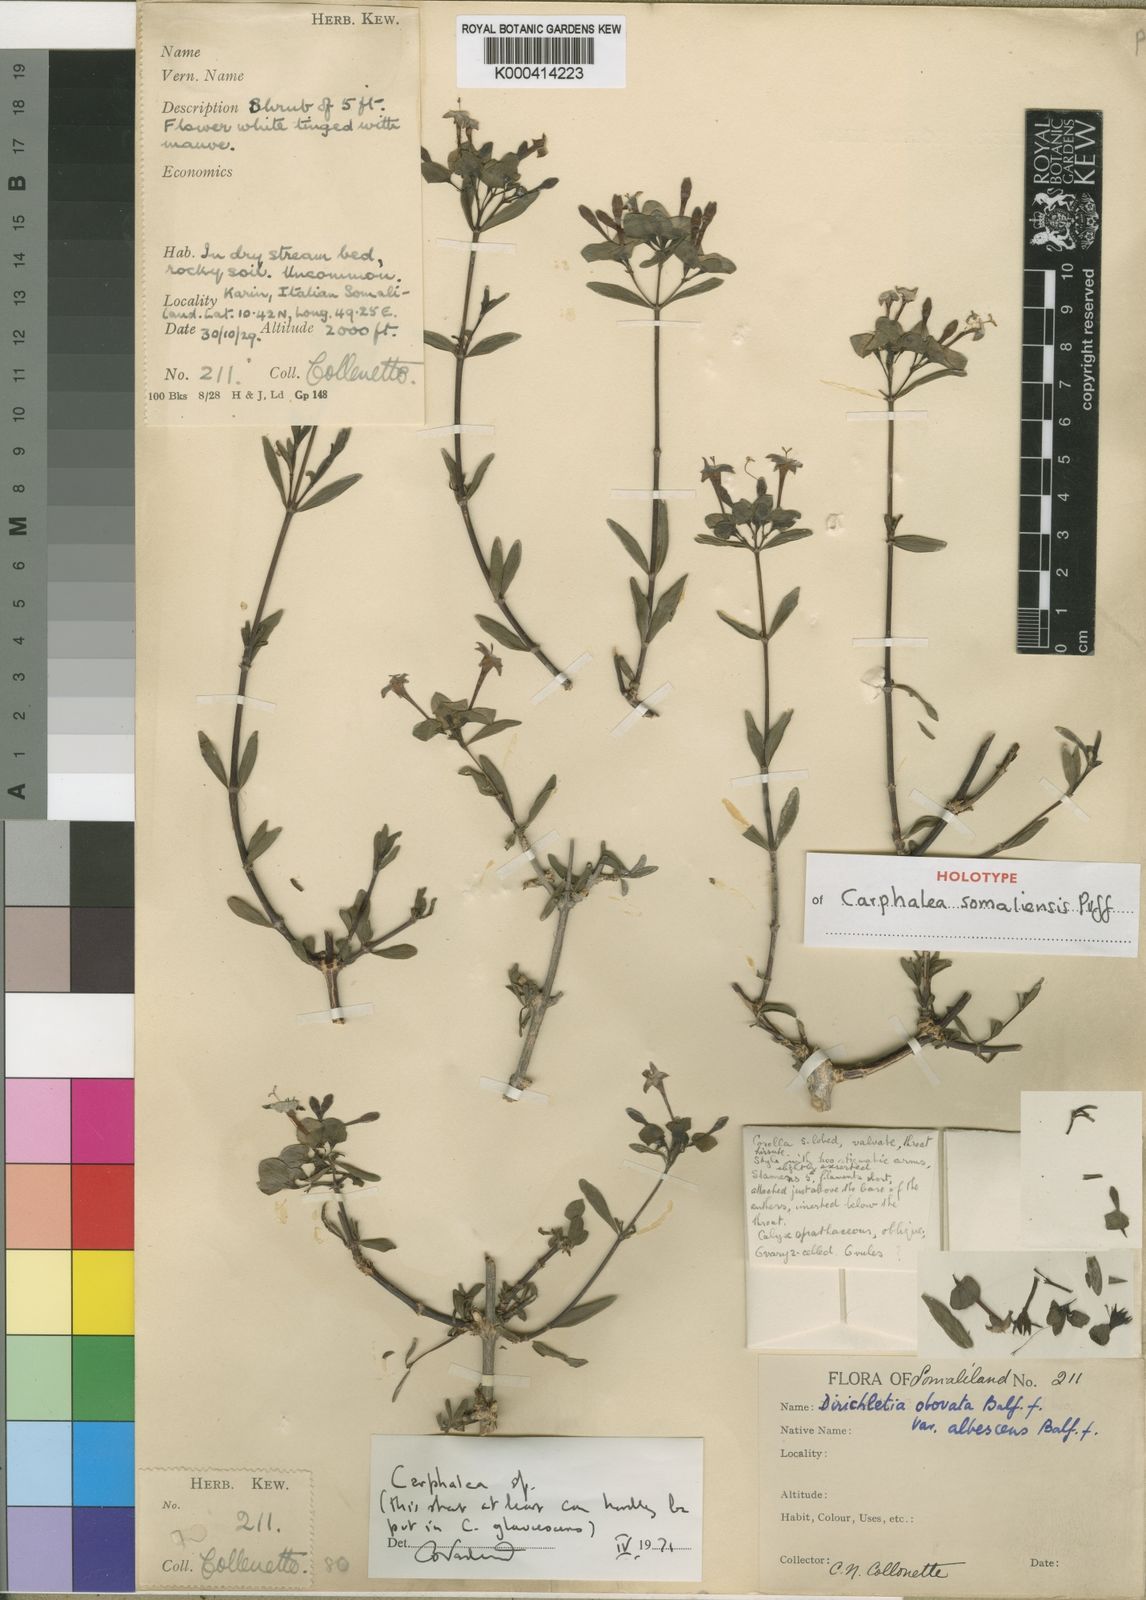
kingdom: Plantae
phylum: Tracheophyta
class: Magnoliopsida
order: Gentianales
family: Rubiaceae
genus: Dirichletia
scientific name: Dirichletia
